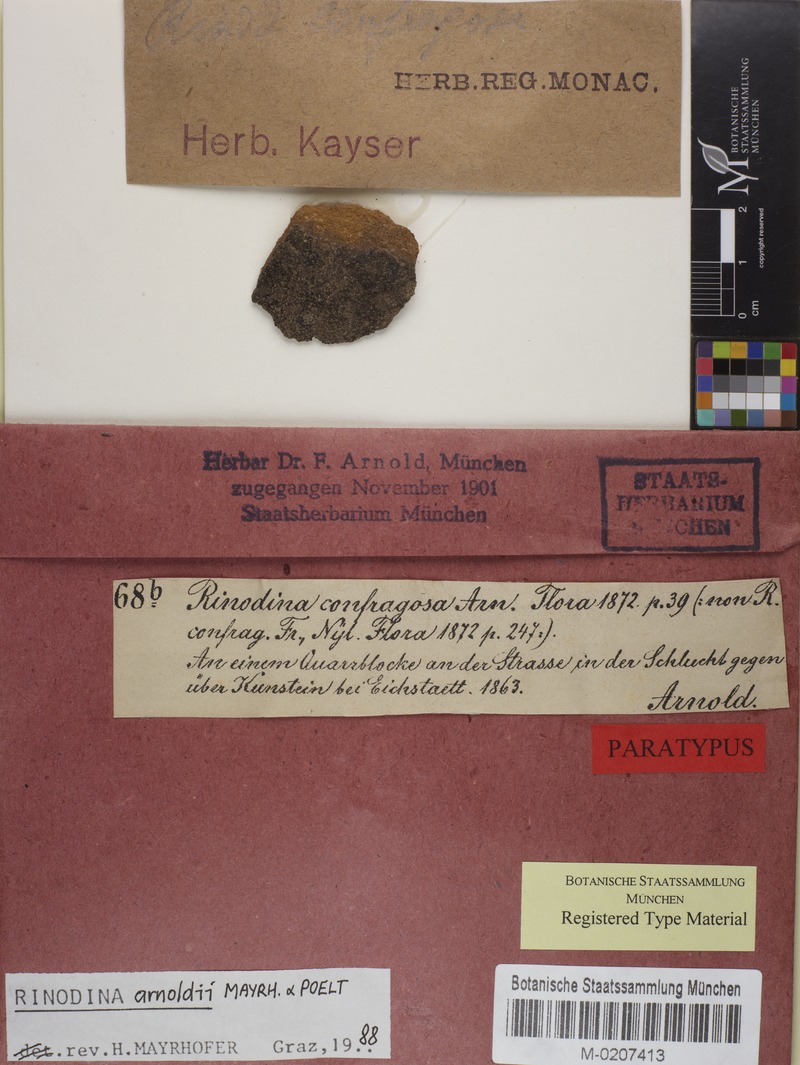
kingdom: Fungi
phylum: Ascomycota
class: Lecanoromycetes
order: Caliciales
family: Physciaceae
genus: Rinodina
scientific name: Rinodina arnoldii
